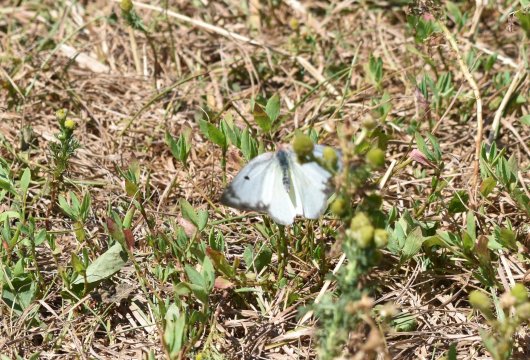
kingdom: Animalia
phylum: Arthropoda
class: Insecta
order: Lepidoptera
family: Pieridae
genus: Colias
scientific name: Colias philodice
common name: Clouded Sulphur
